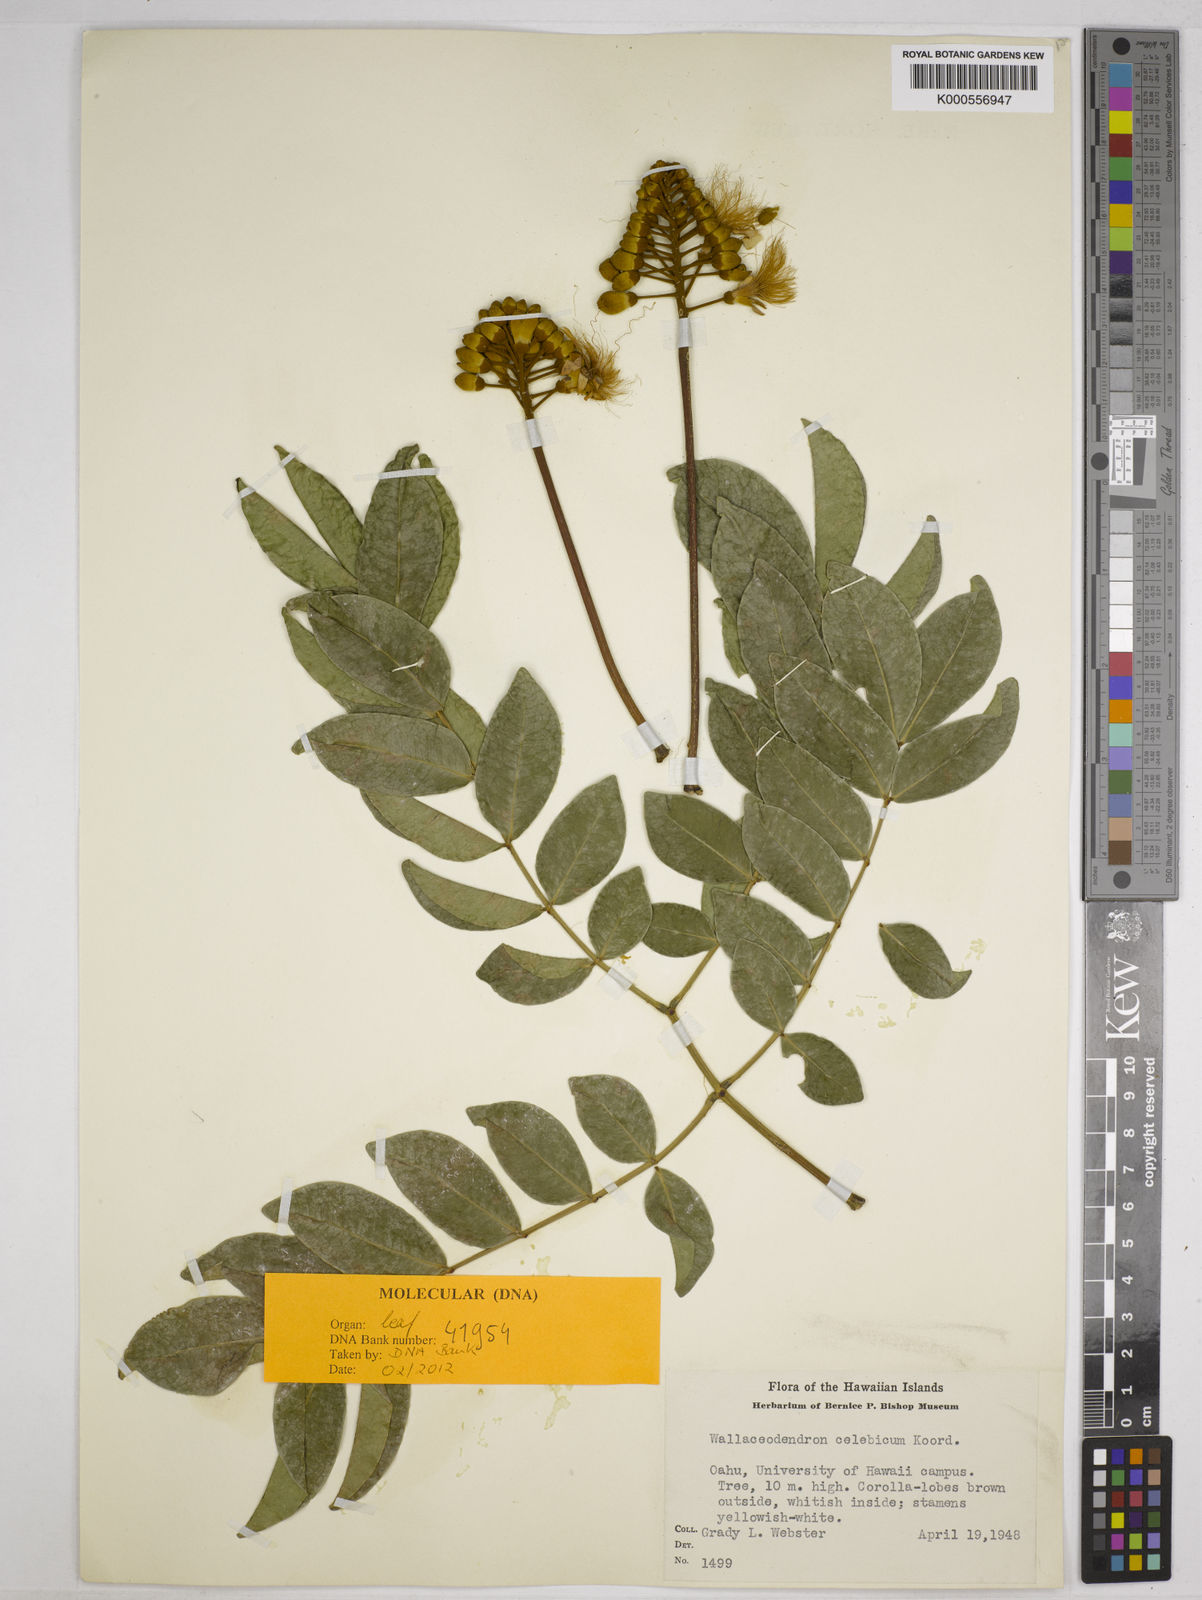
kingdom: Plantae
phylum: Tracheophyta
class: Magnoliopsida
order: Fabales
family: Fabaceae
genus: Wallaceodendron
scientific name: Wallaceodendron celebicum
